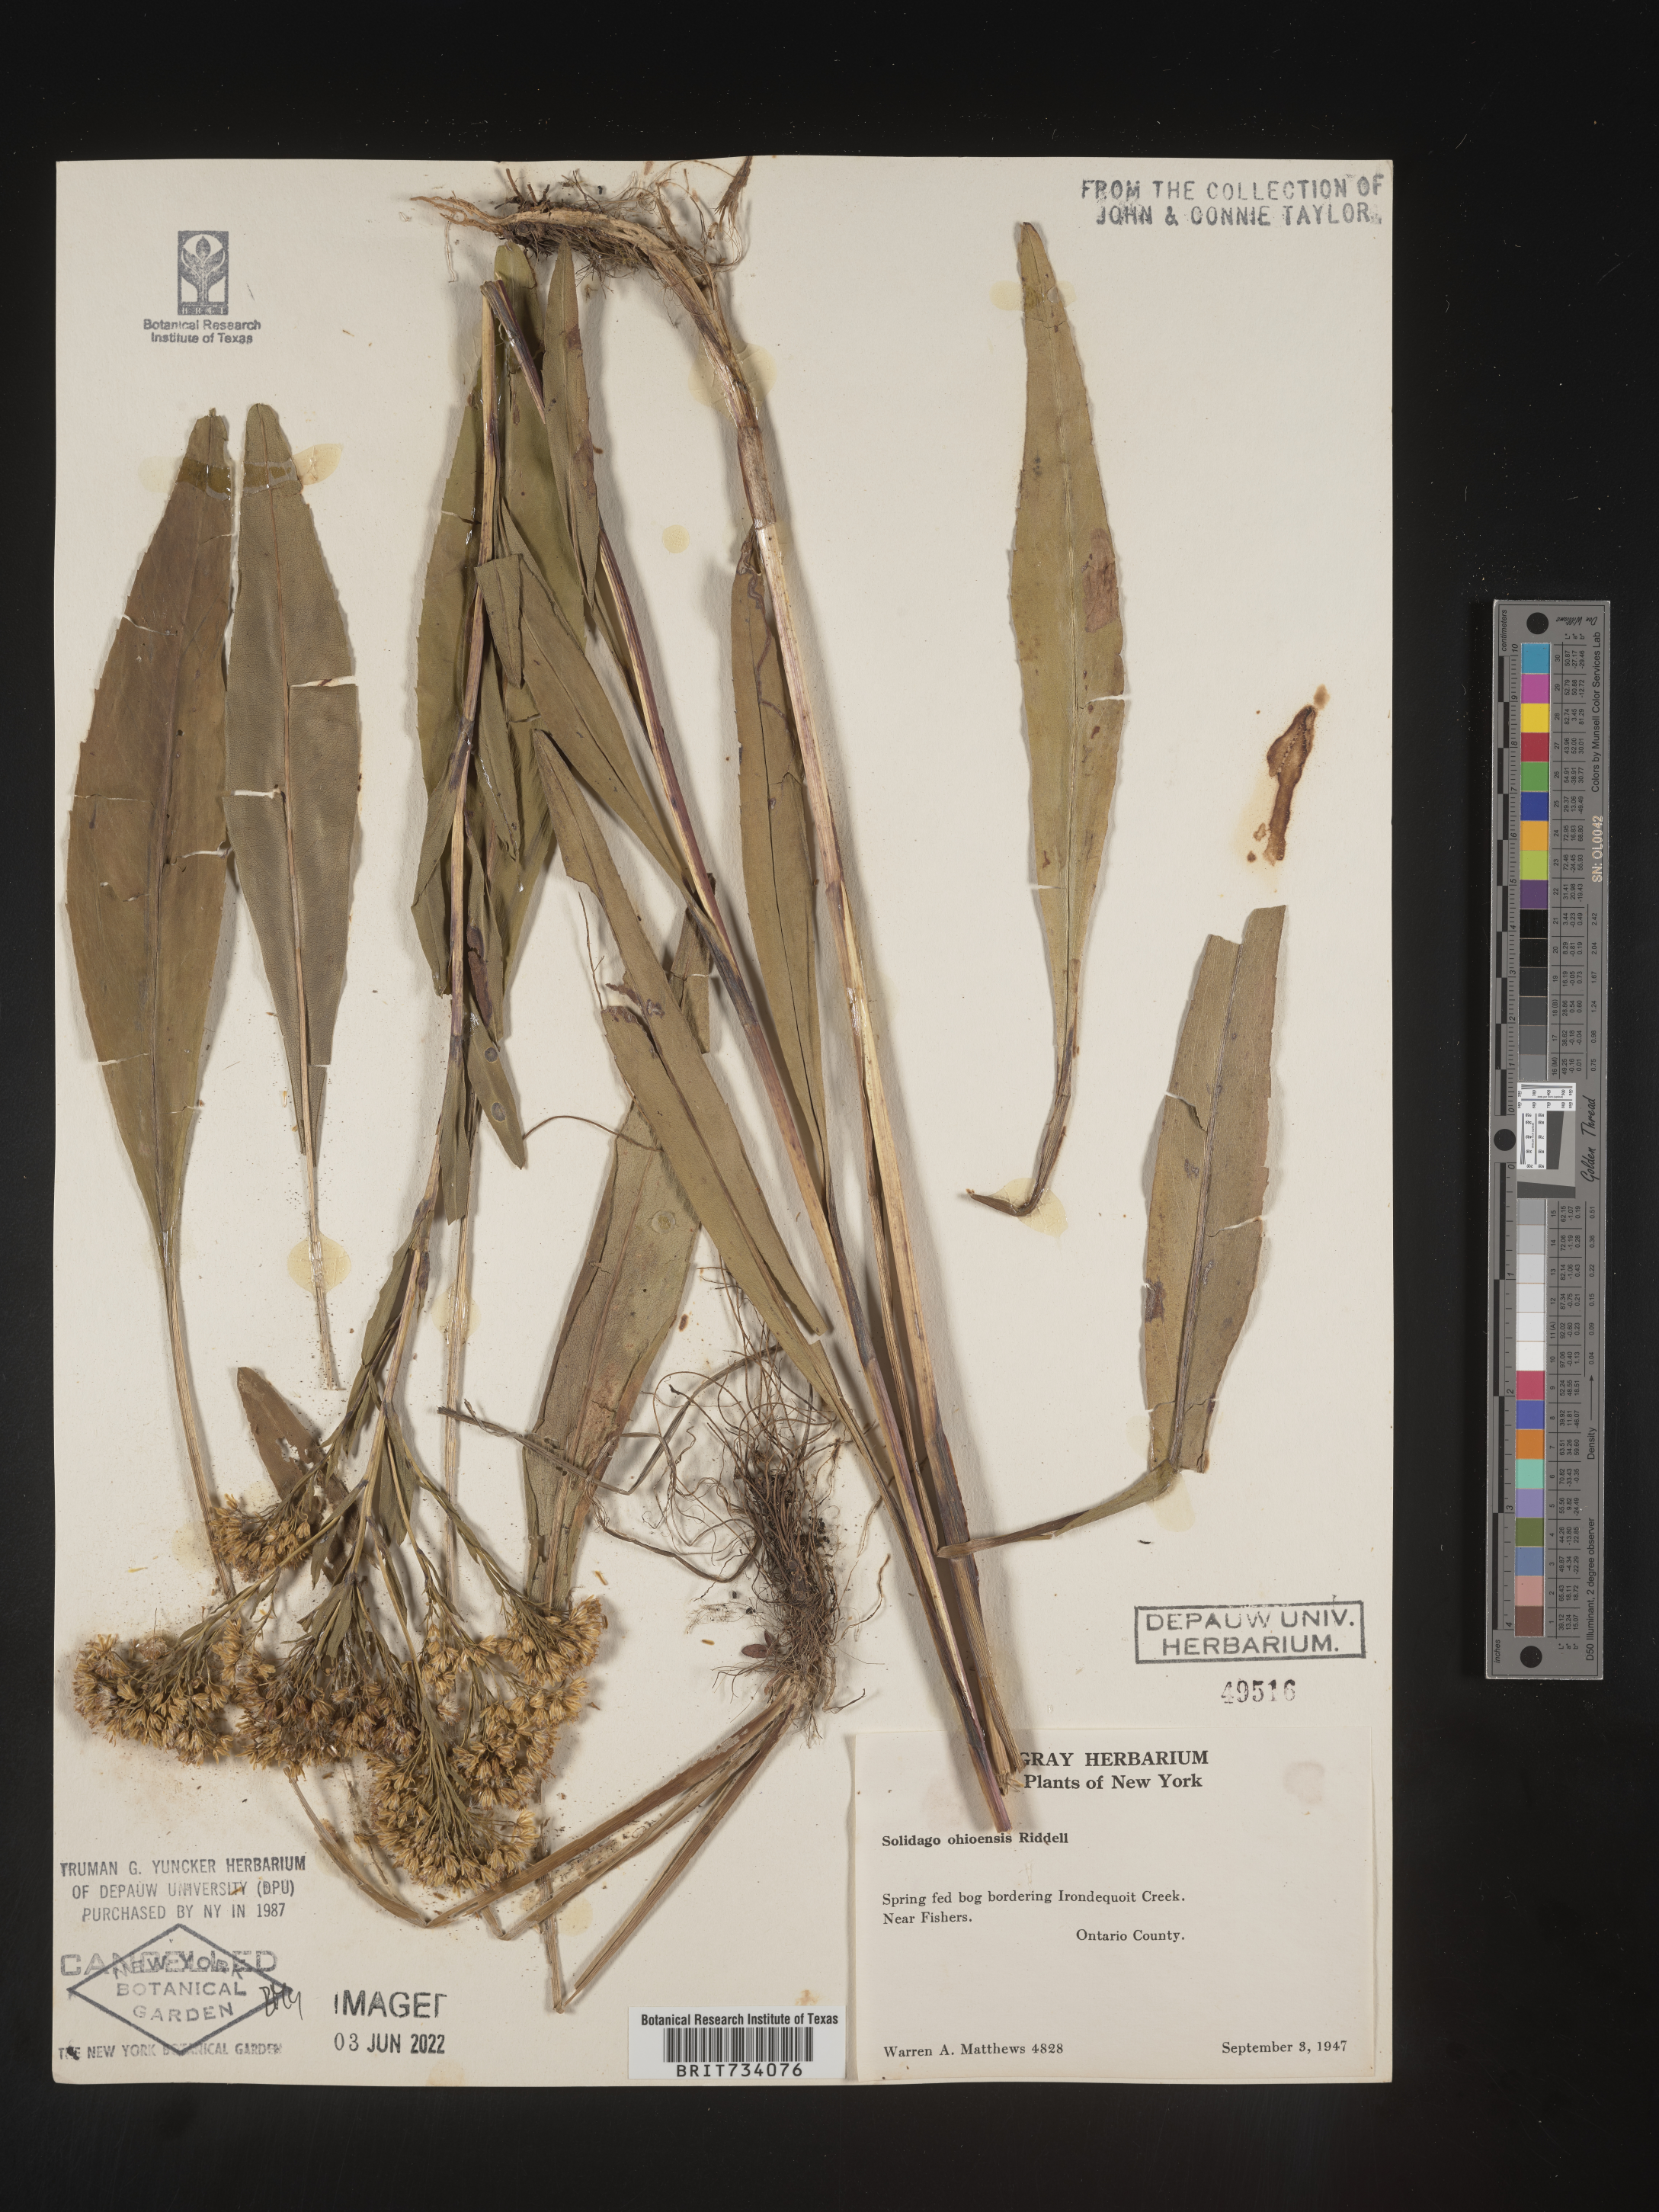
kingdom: Plantae
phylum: Tracheophyta
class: Magnoliopsida
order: Asterales
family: Asteraceae
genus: Solidago
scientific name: Solidago ohioensis
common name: Ohio goldenrod
